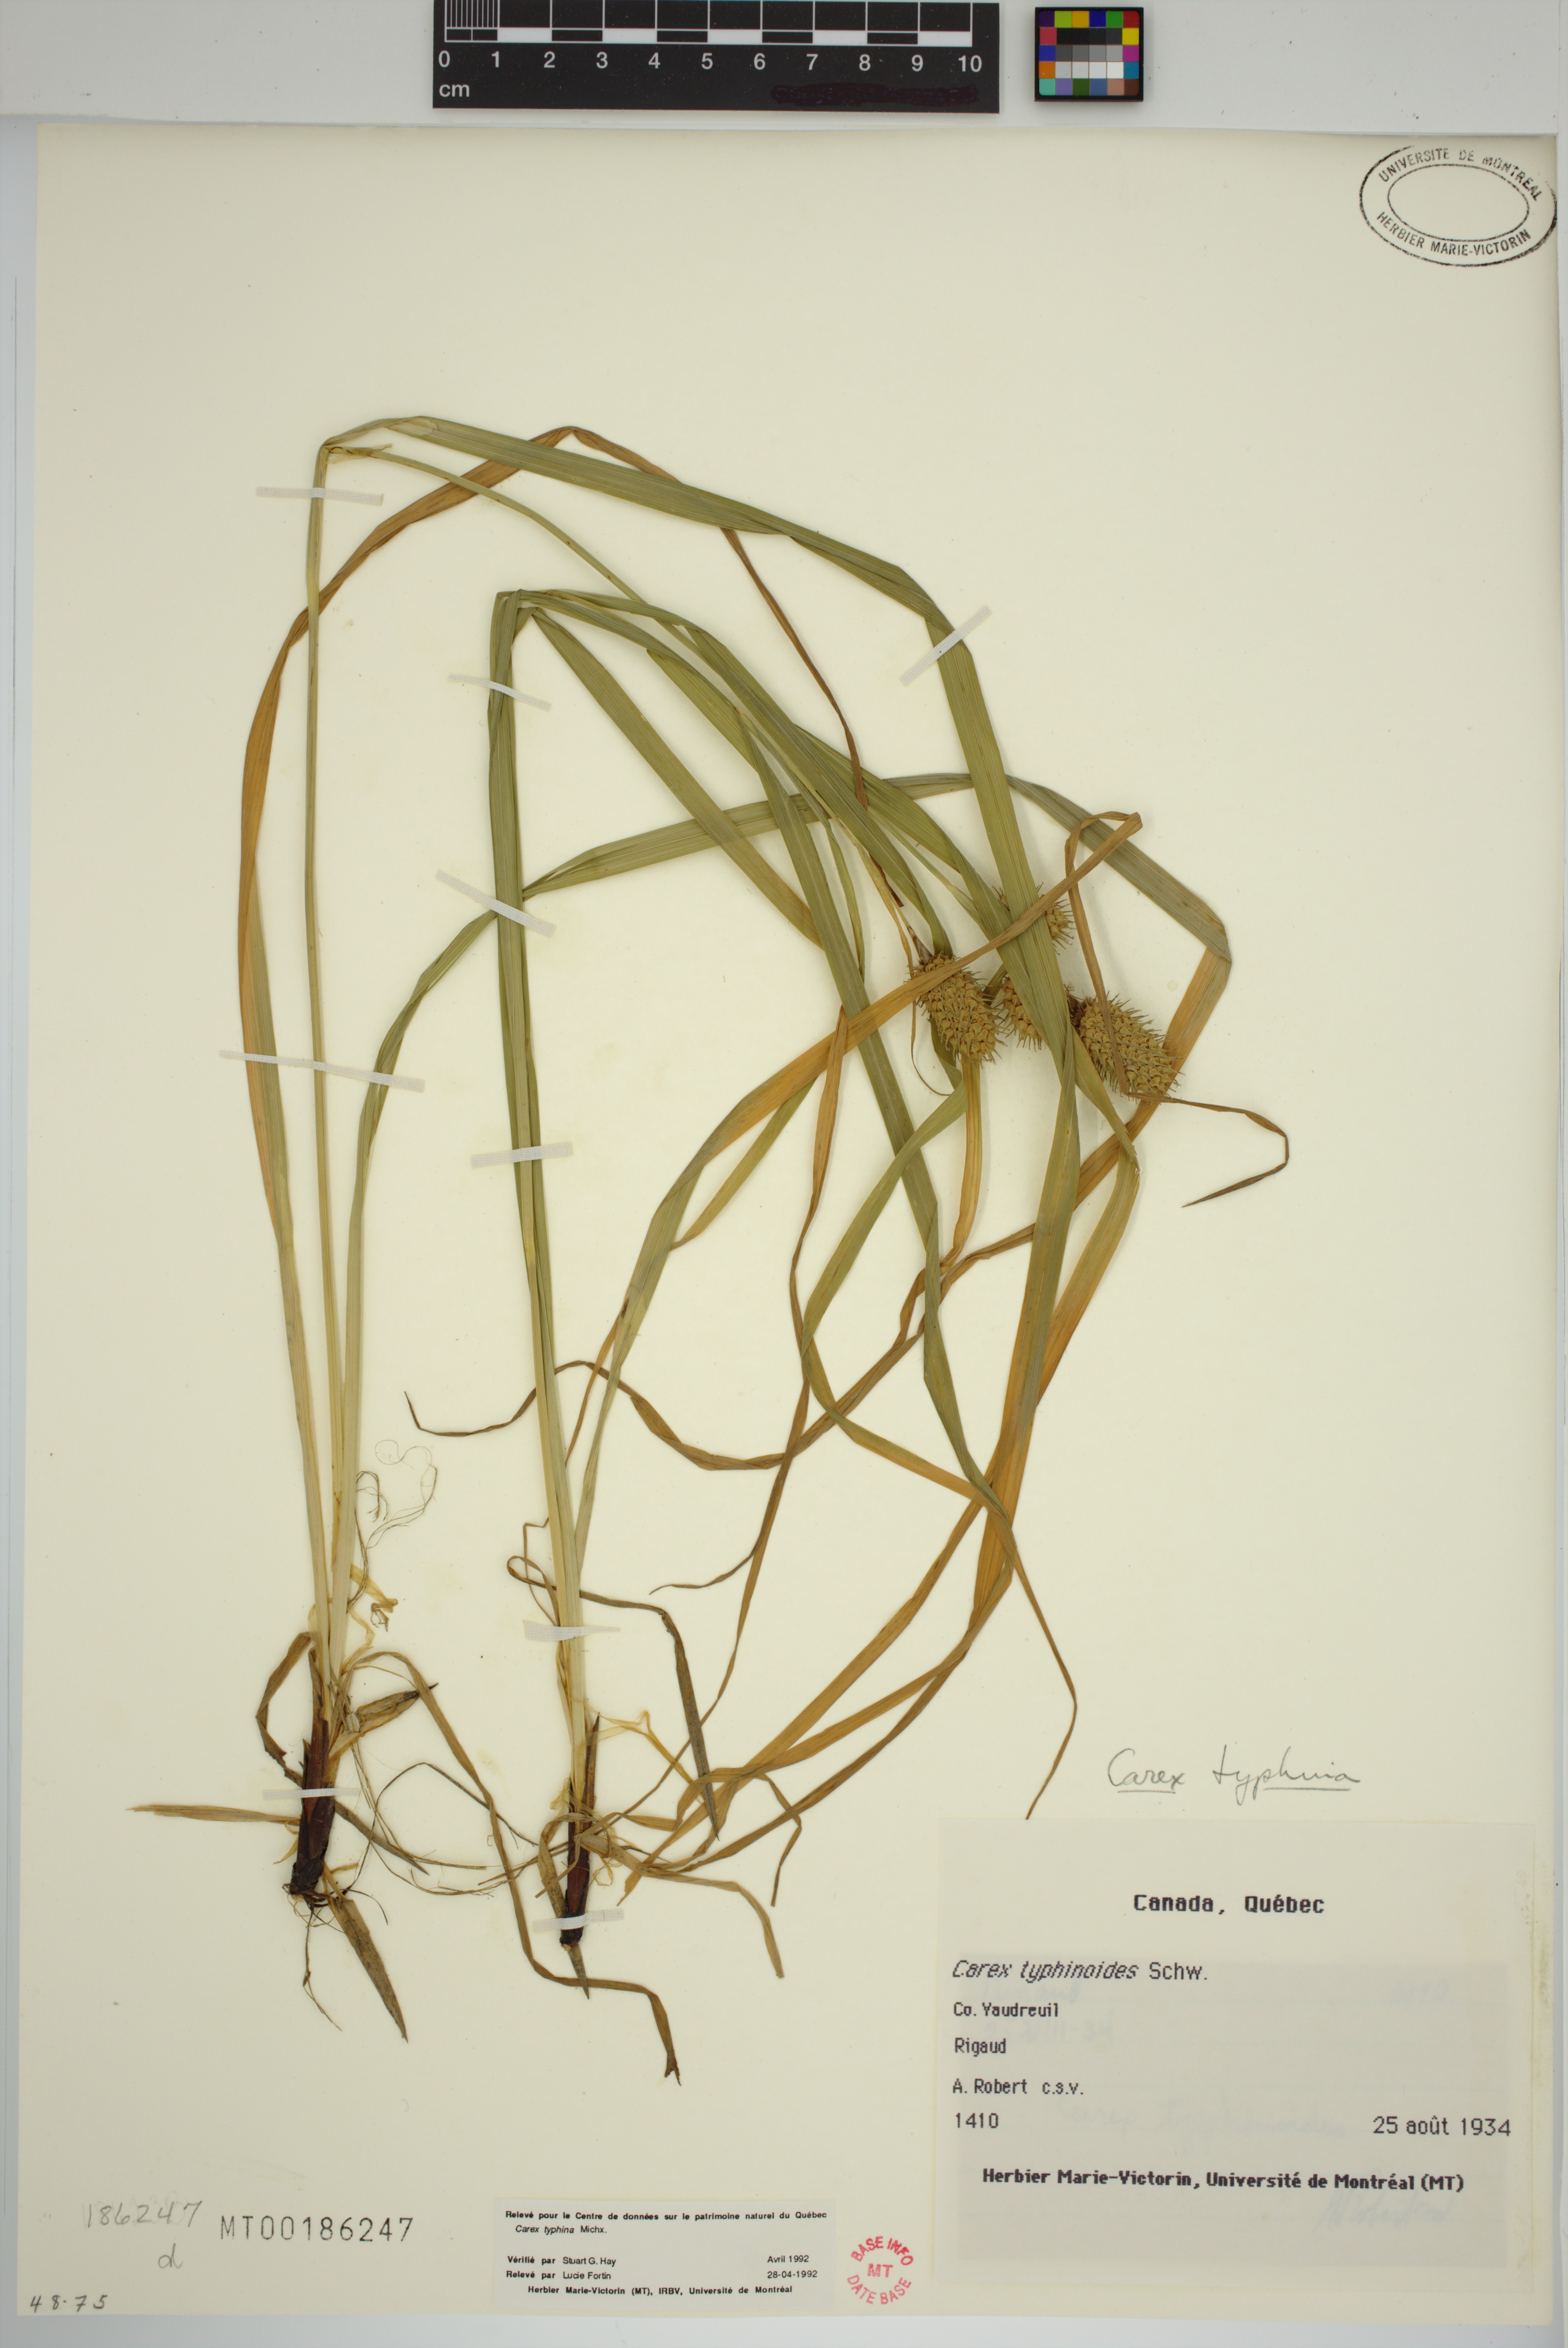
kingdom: Plantae
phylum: Tracheophyta
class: Liliopsida
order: Poales
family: Cyperaceae
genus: Carex
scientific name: Carex typhina
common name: Cattail sedge
